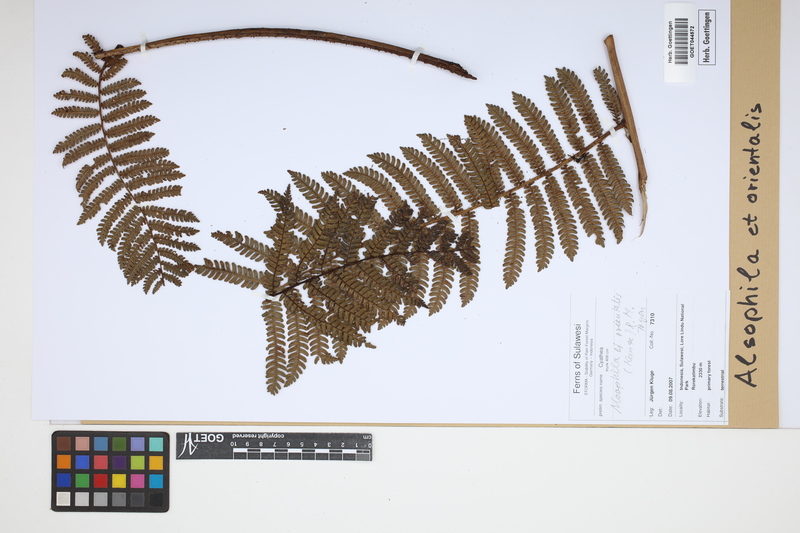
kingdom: Plantae
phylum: Tracheophyta
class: Polypodiopsida
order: Cyatheales
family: Cyatheaceae
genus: Alsophila
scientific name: Alsophila orientalis
